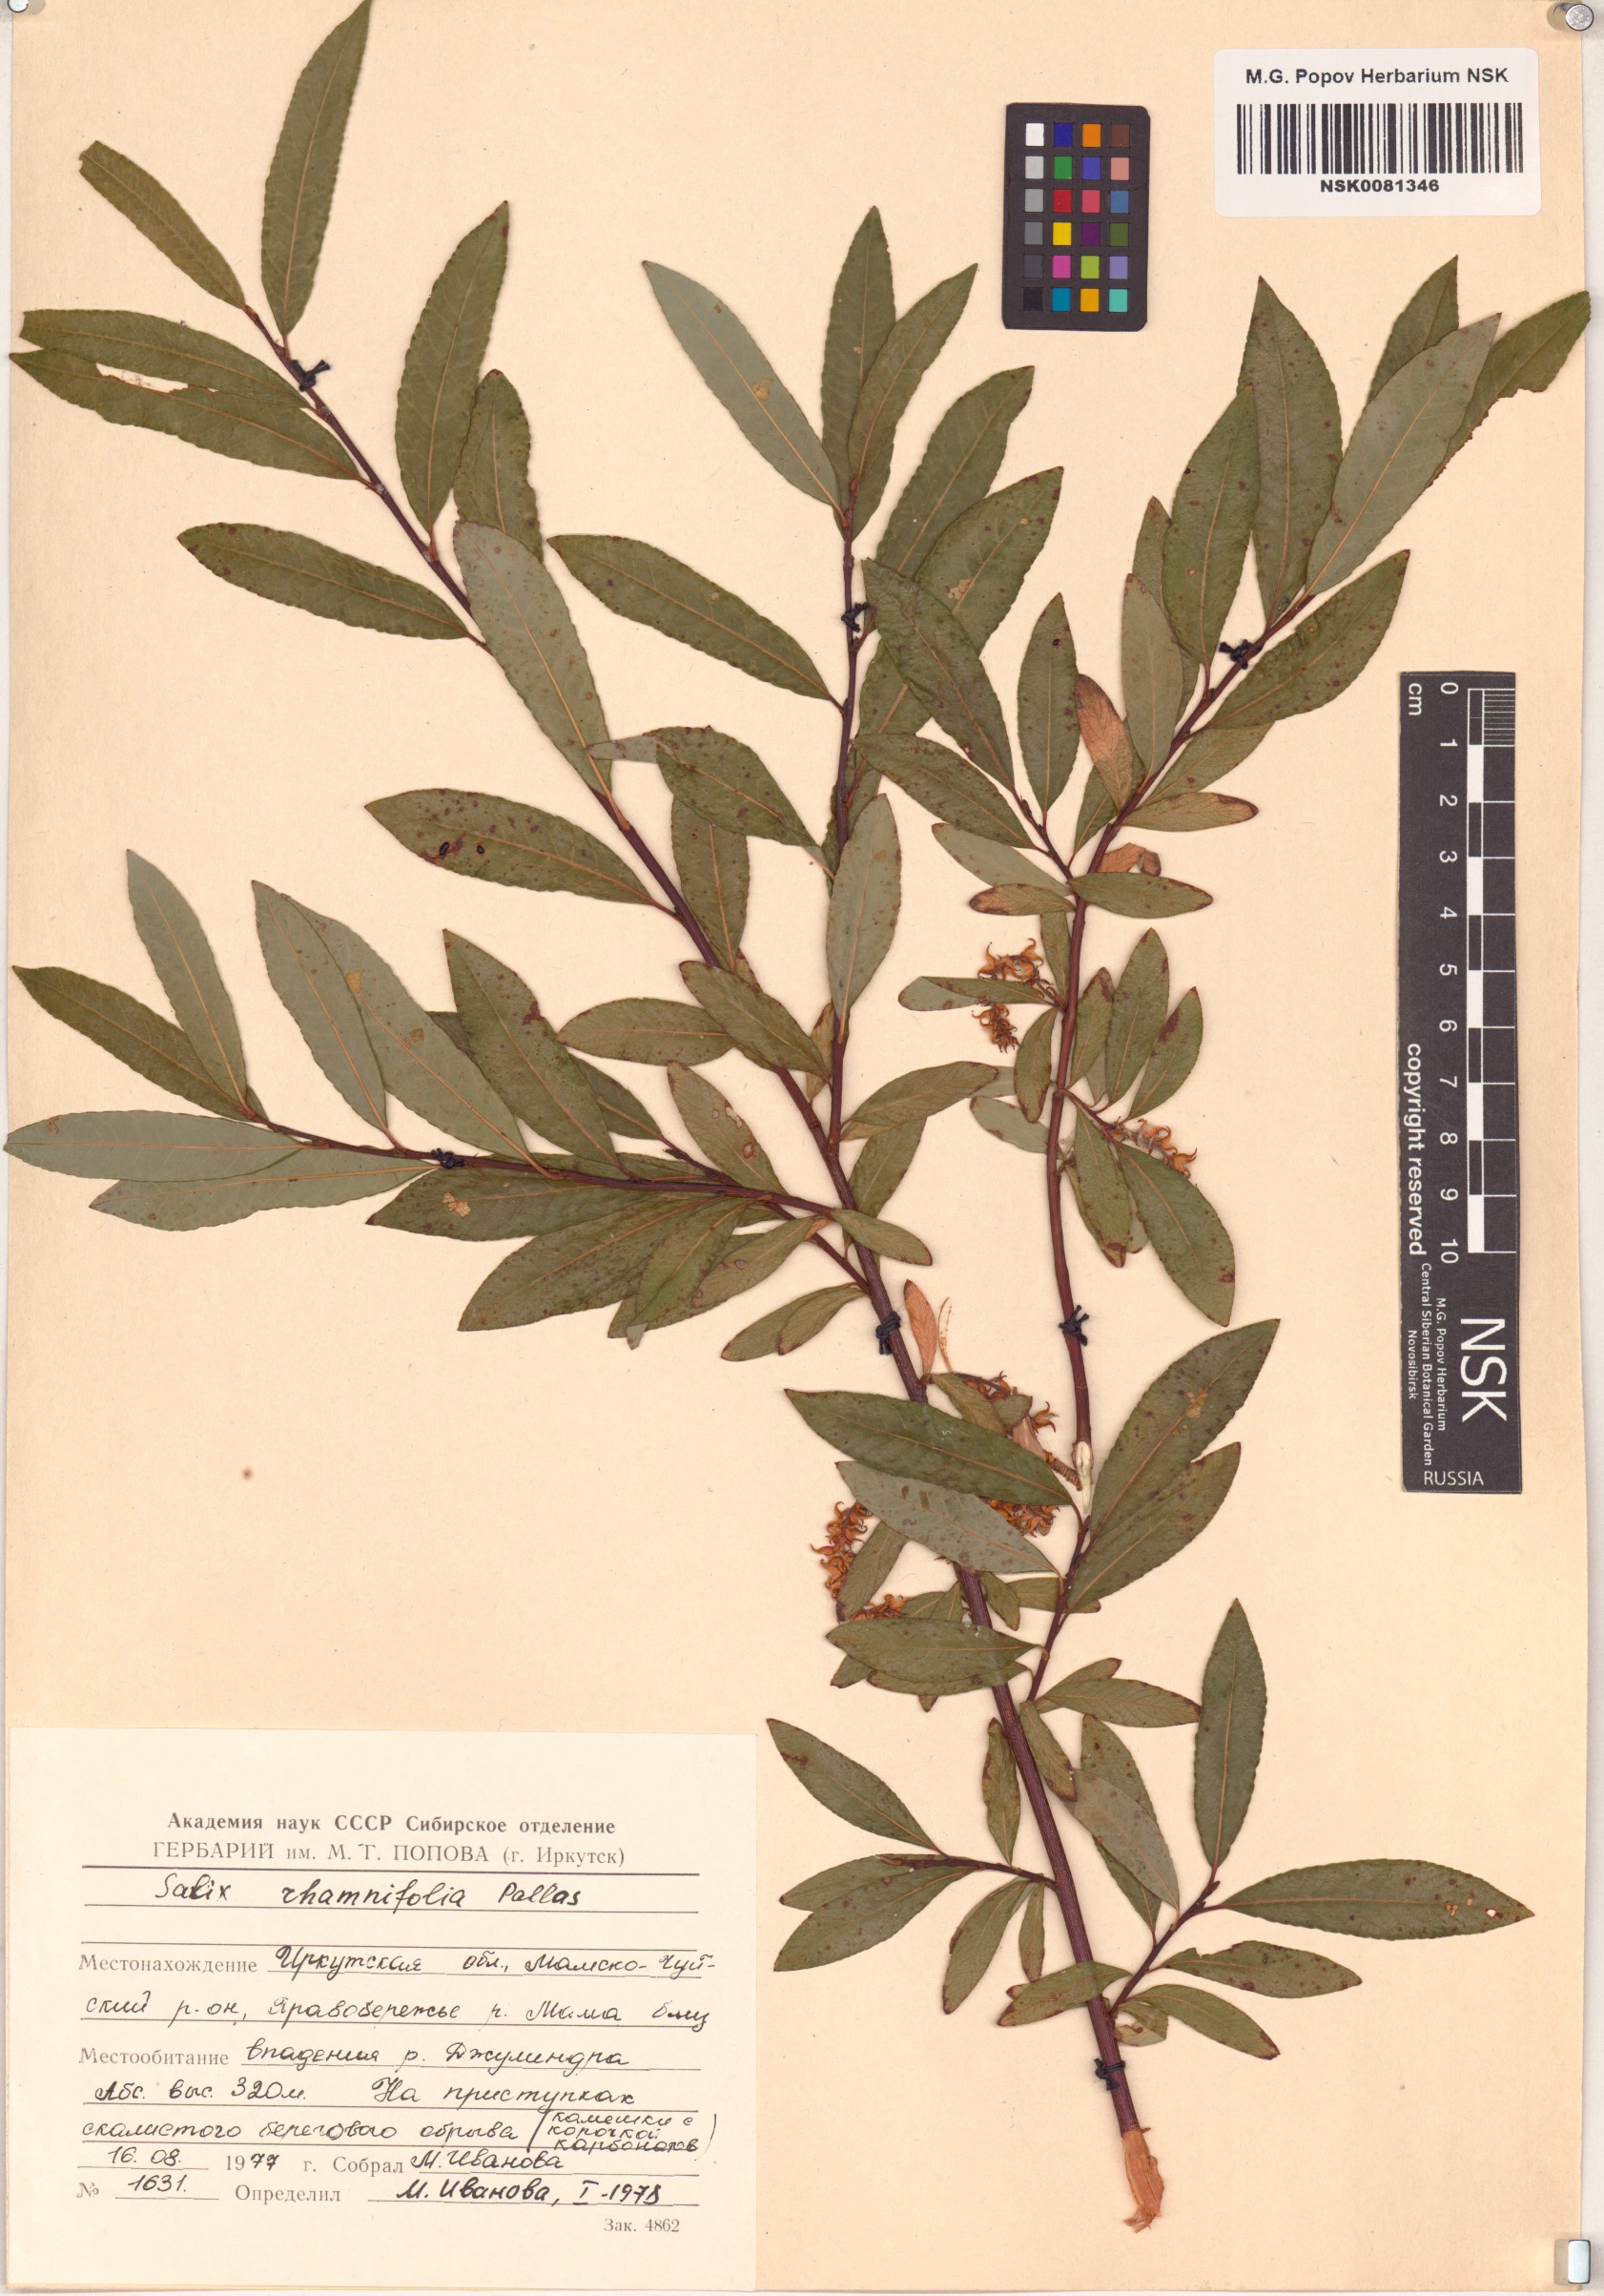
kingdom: Plantae
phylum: Tracheophyta
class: Magnoliopsida
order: Malpighiales
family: Salicaceae
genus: Salix
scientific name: Salix rhamnifolia
